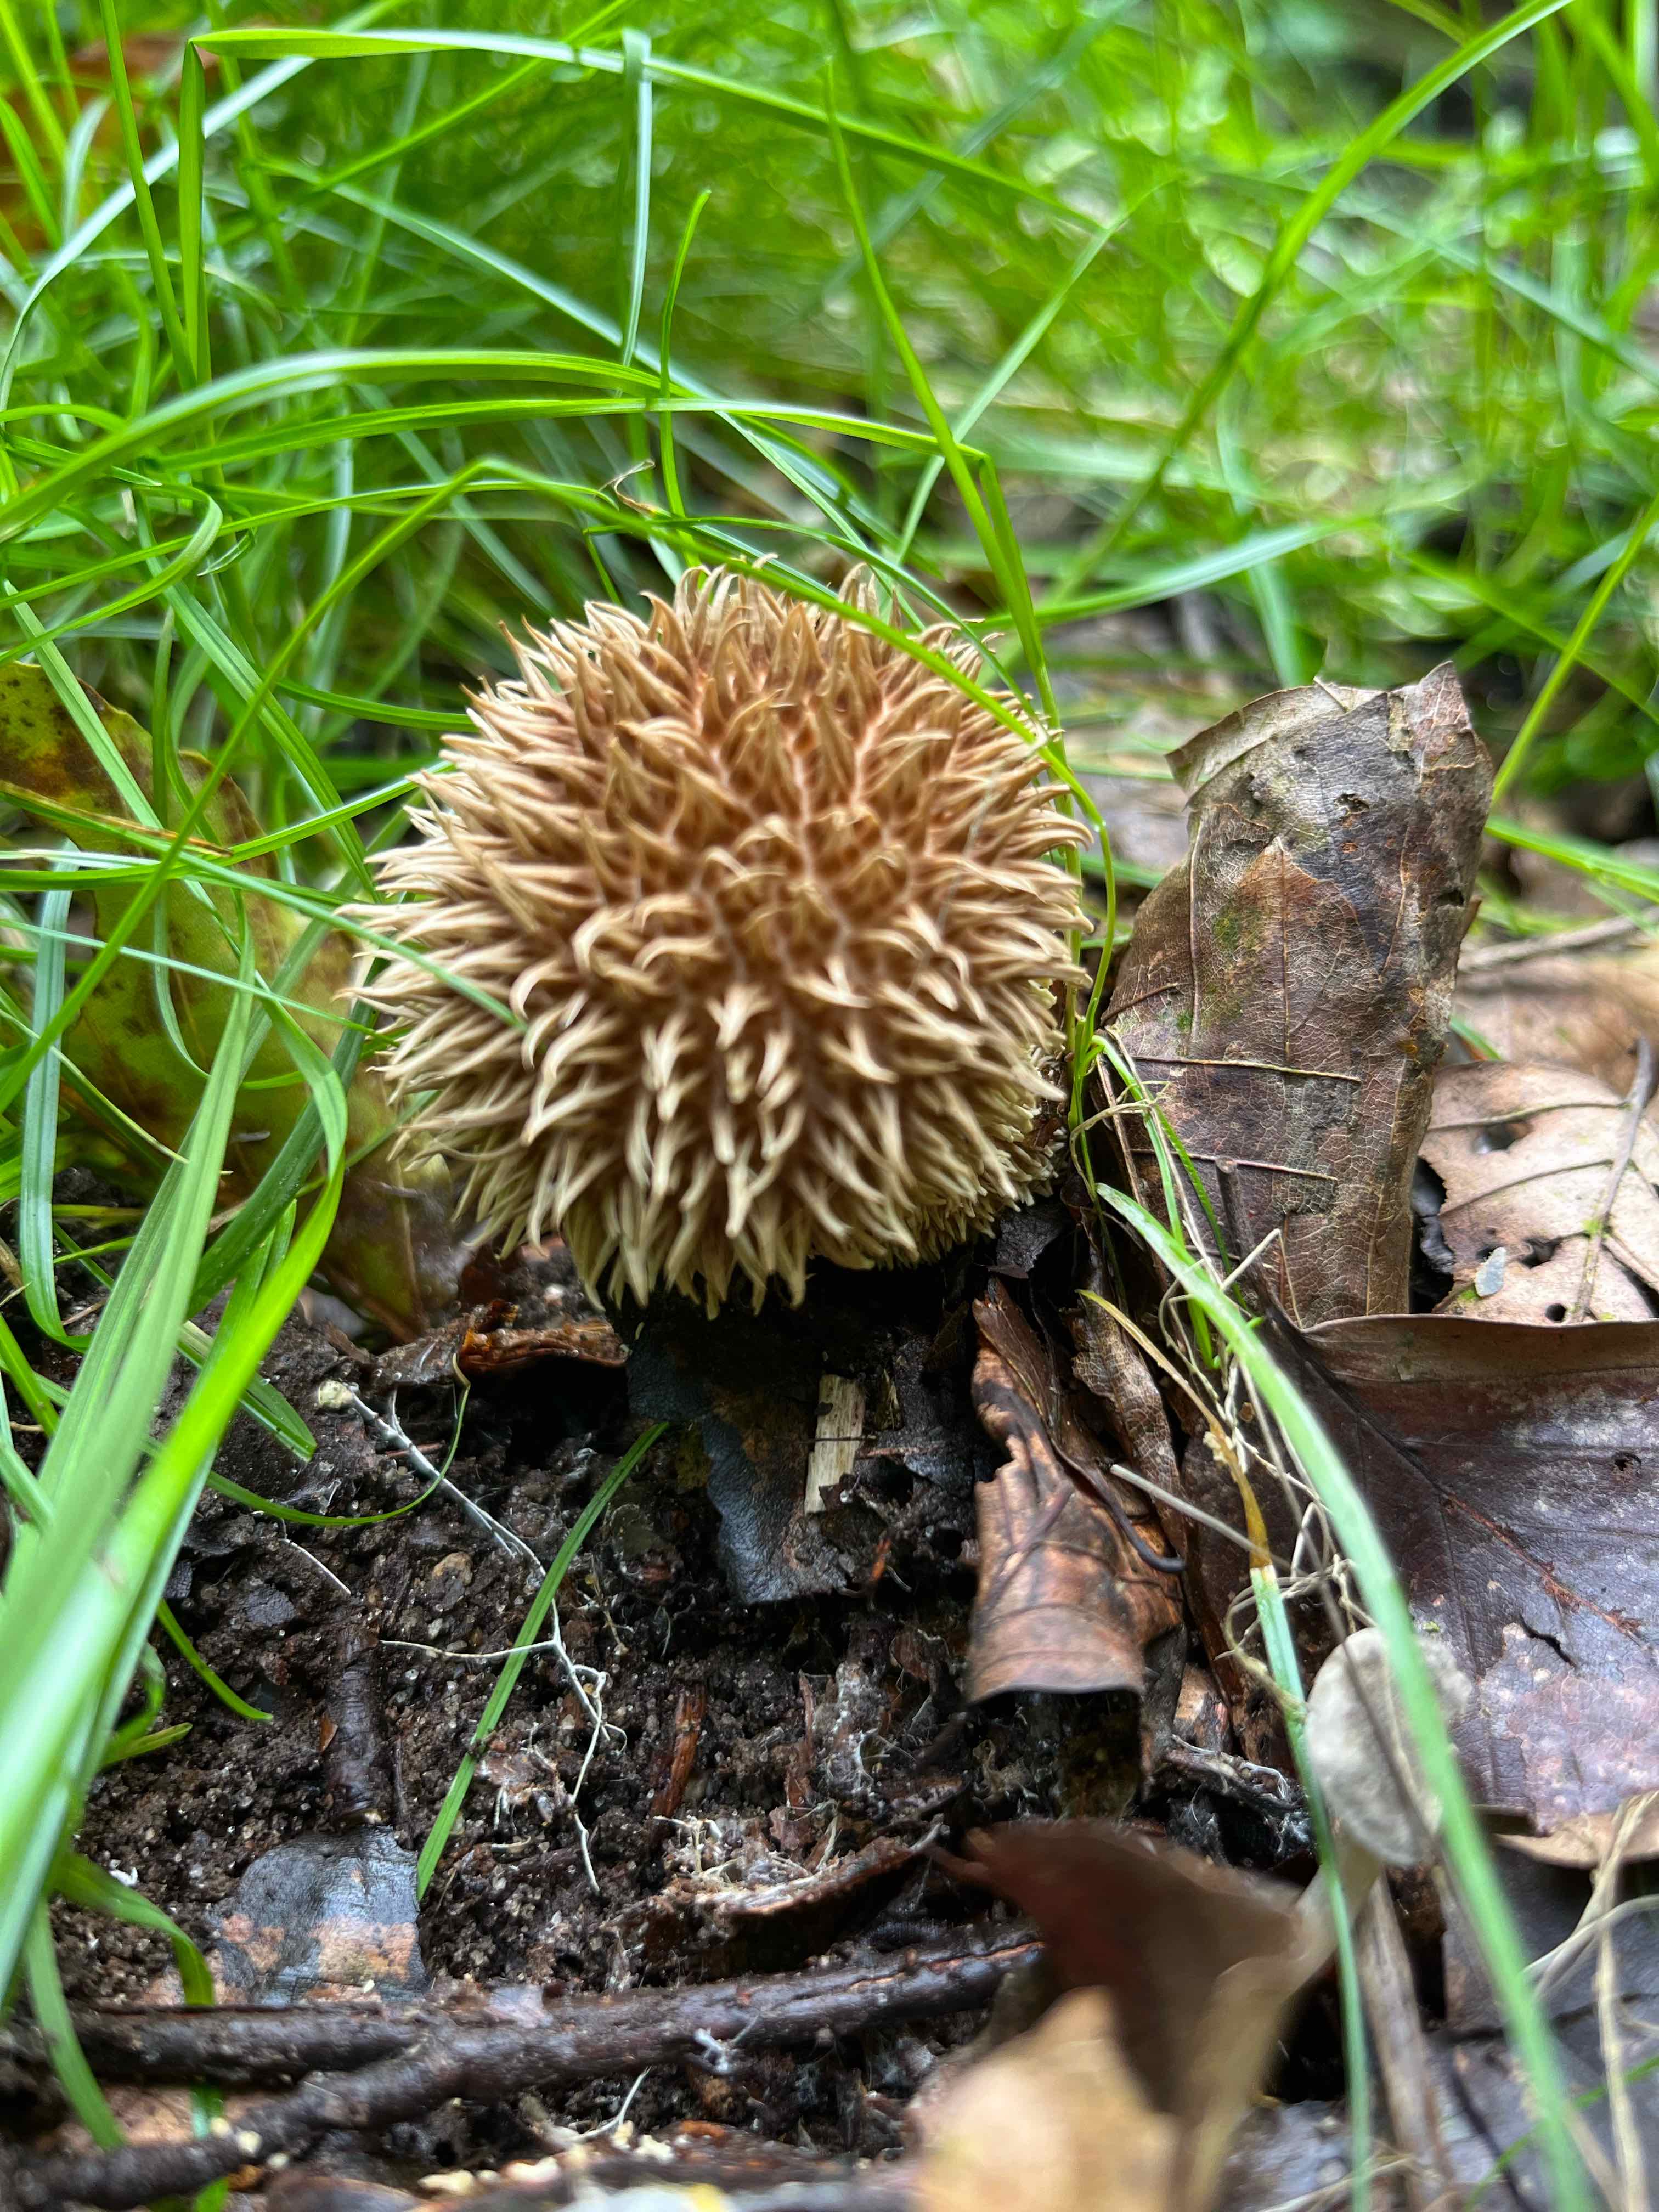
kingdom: Fungi
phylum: Basidiomycota
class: Agaricomycetes
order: Agaricales
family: Lycoperdaceae
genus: Lycoperdon
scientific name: Lycoperdon echinatum
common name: pindsvine-støvbold
